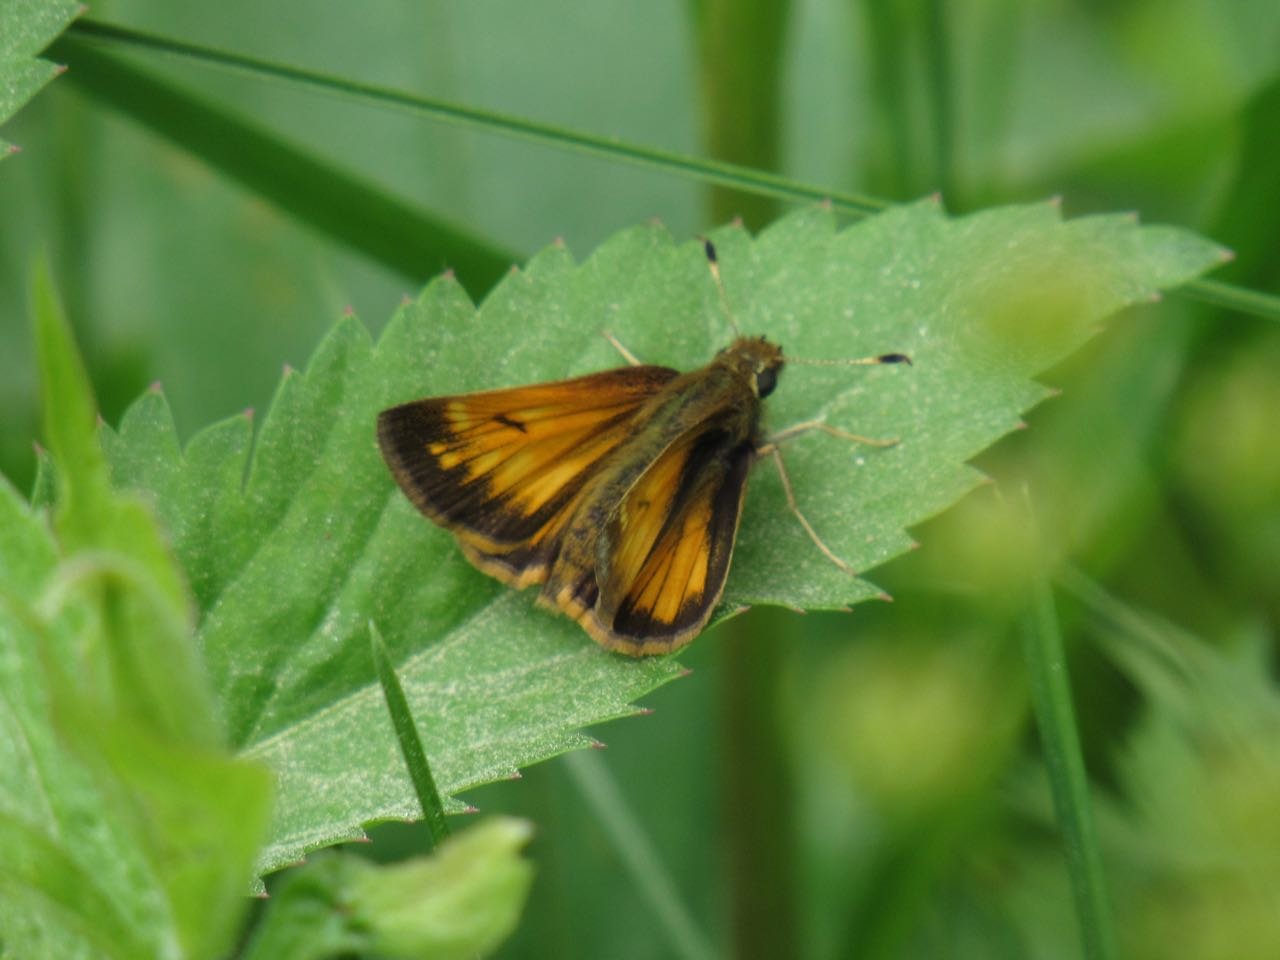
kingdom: Animalia
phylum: Arthropoda
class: Insecta
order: Lepidoptera
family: Hesperiidae
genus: Lon
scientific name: Lon hobomok
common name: Hobomok Skipper
